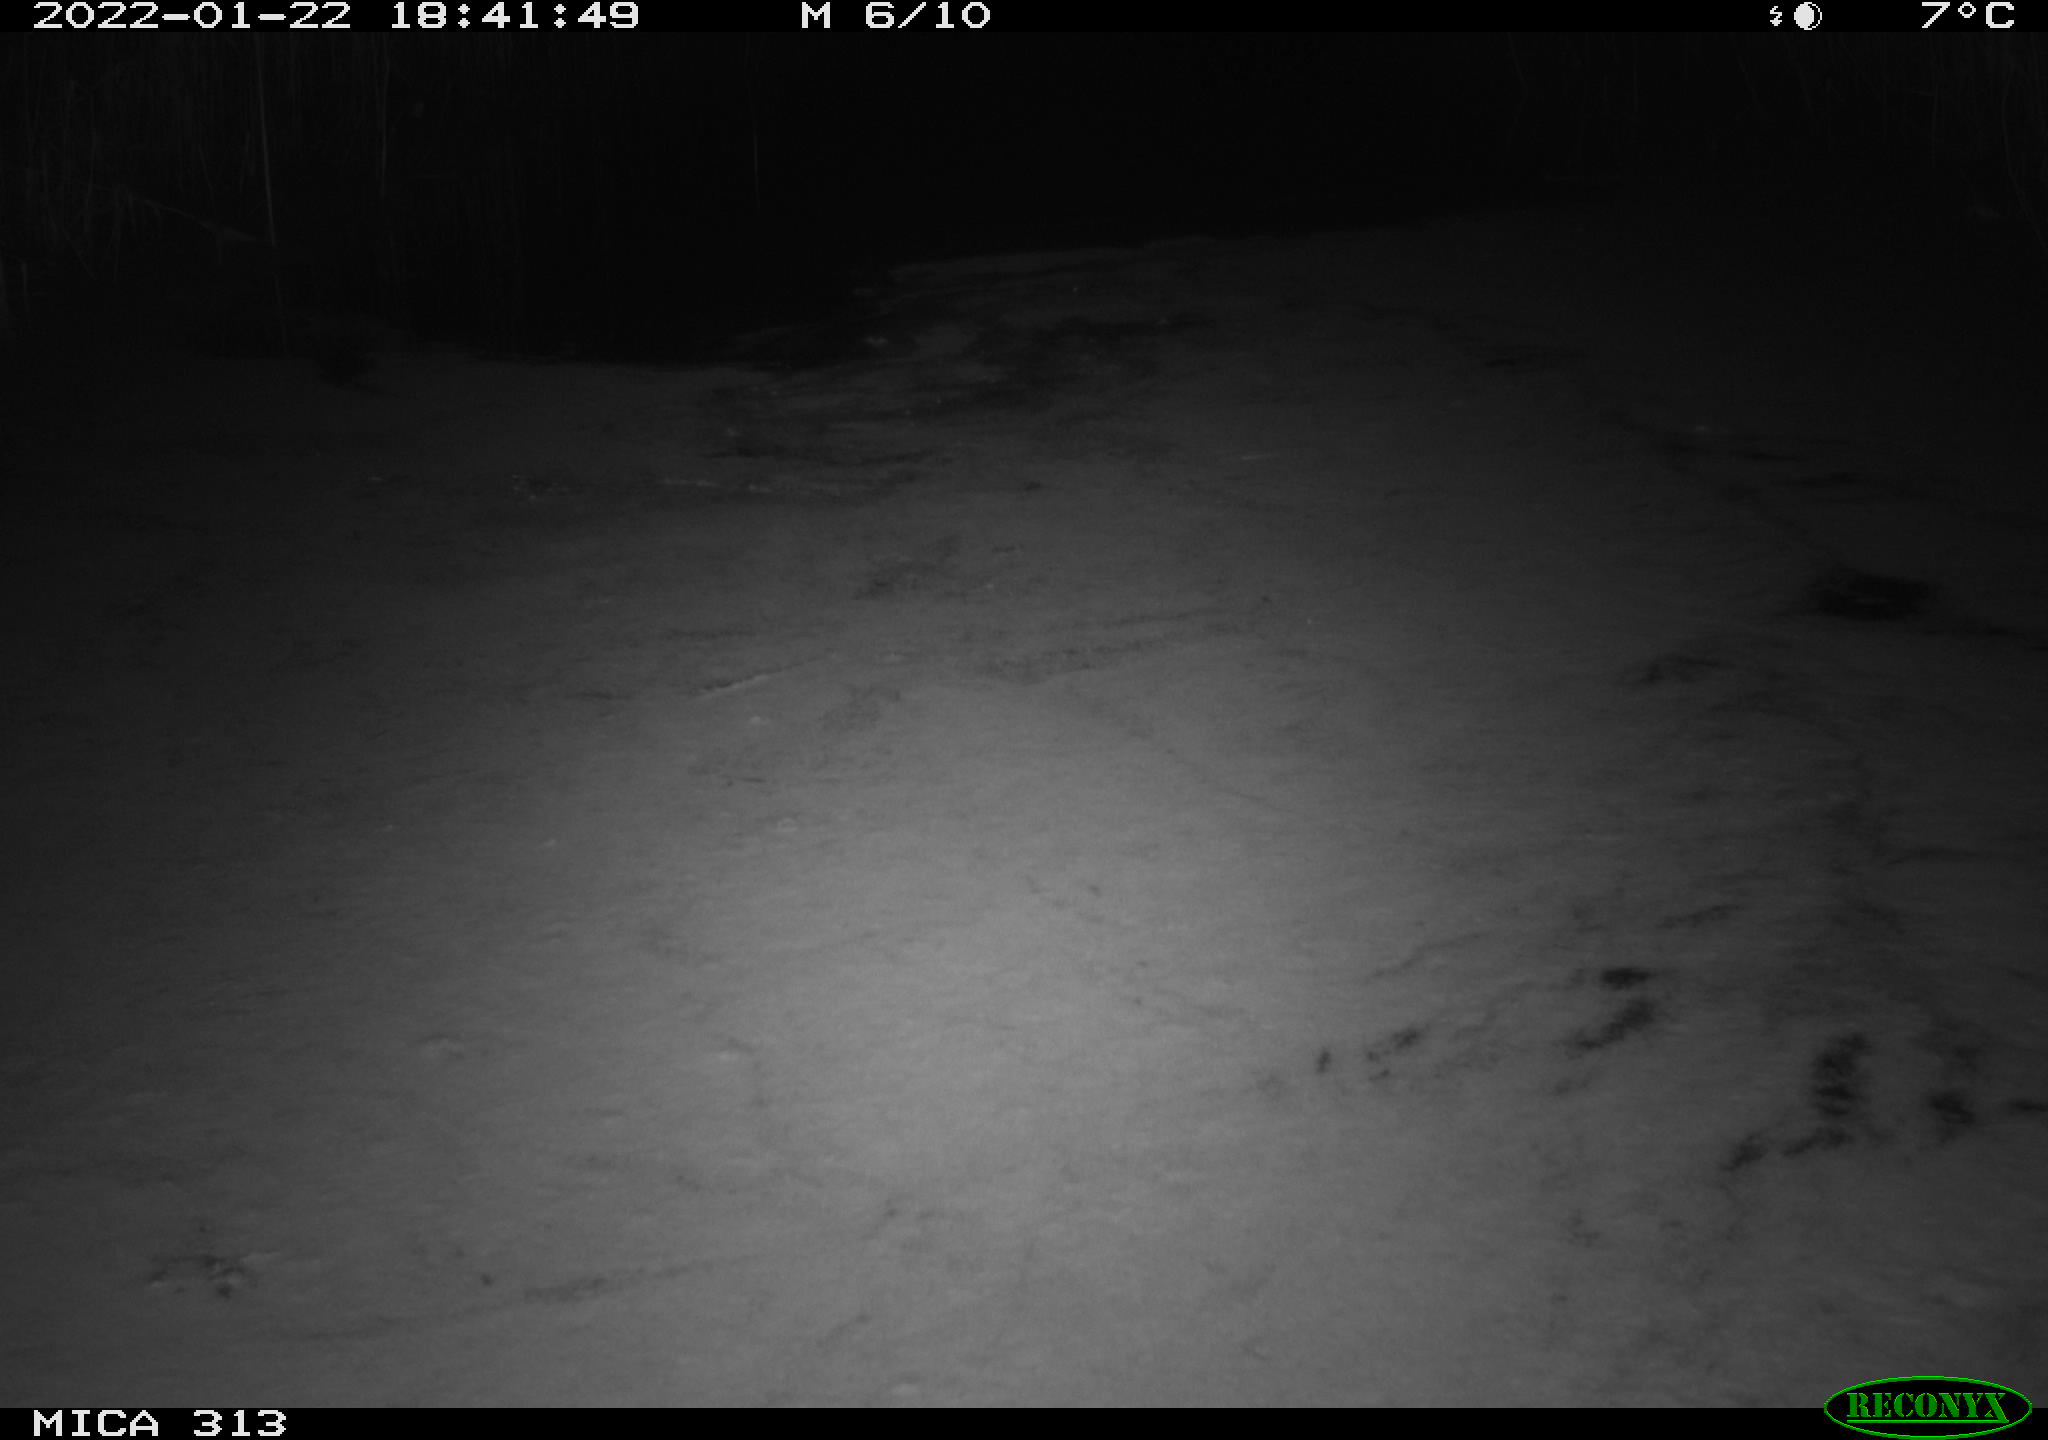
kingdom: Animalia
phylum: Chordata
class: Aves
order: Gruiformes
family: Rallidae
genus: Gallinula
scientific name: Gallinula chloropus
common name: Common moorhen
